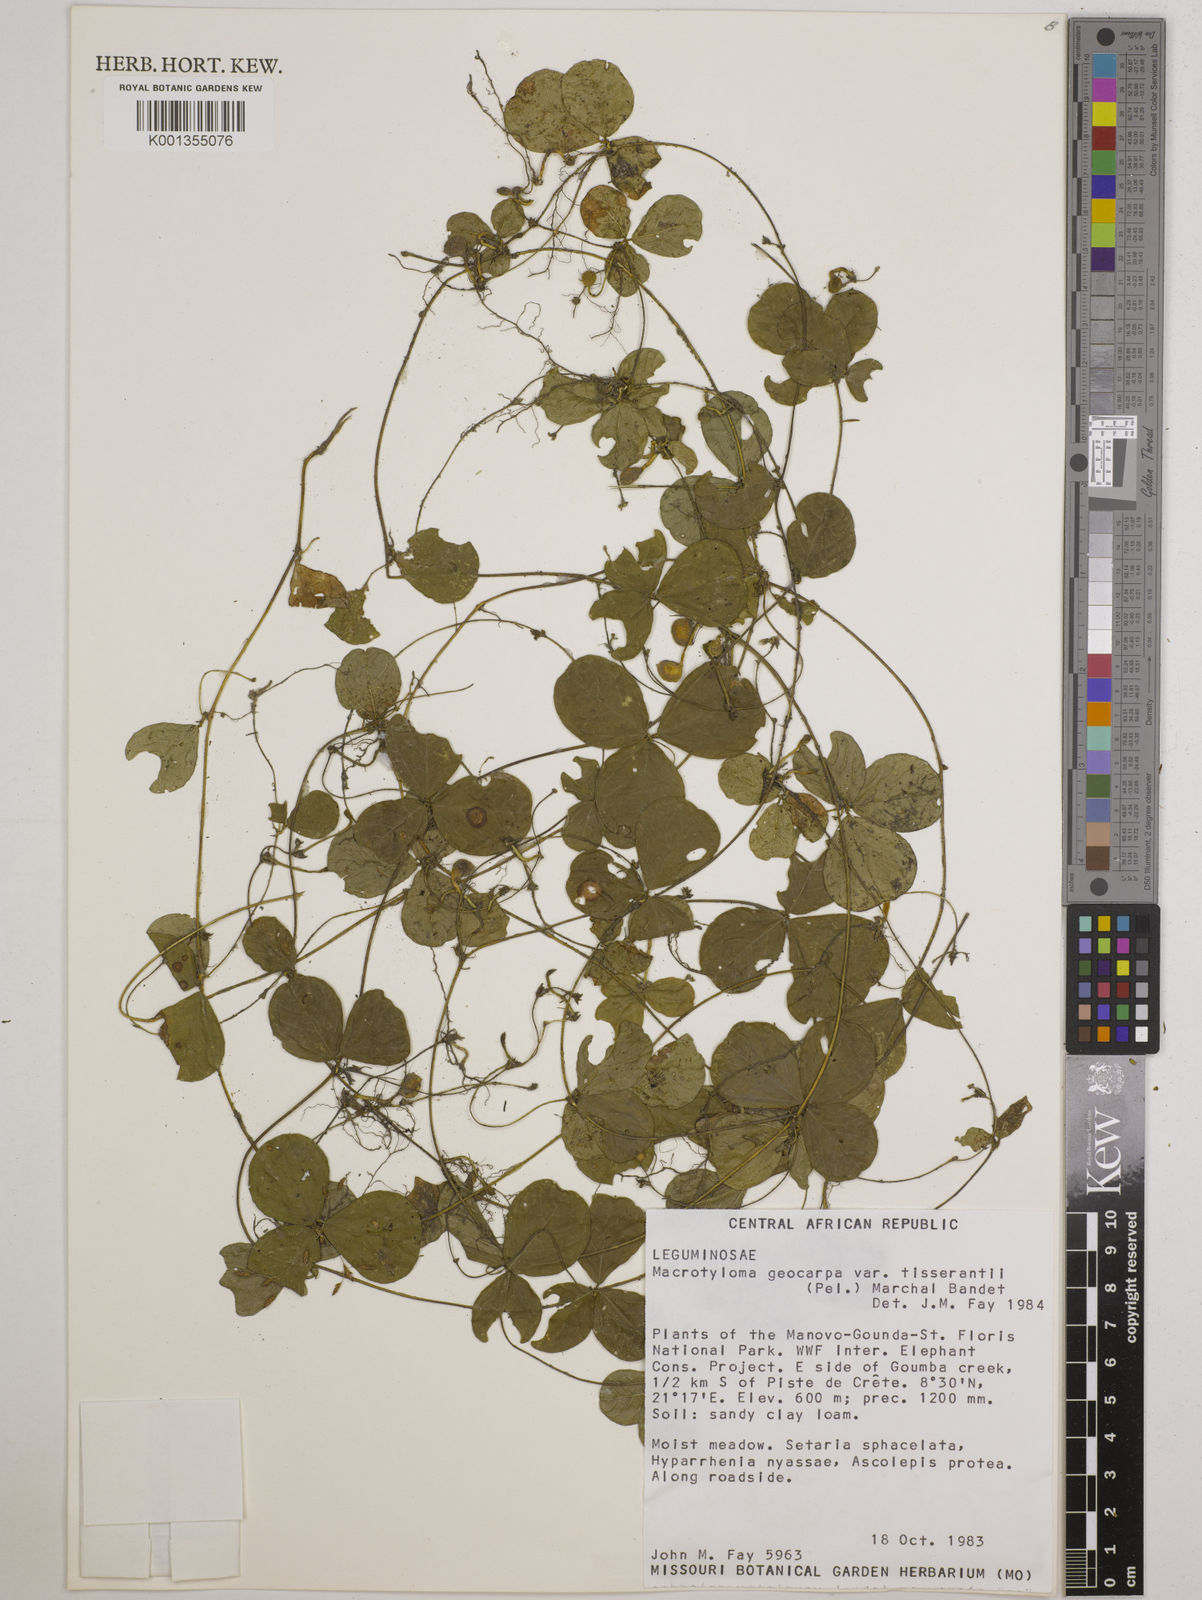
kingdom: Plantae
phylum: Tracheophyta
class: Magnoliopsida
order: Fabales
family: Fabaceae
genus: Macrotyloma
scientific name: Macrotyloma geocarpum
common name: Ground-bean
